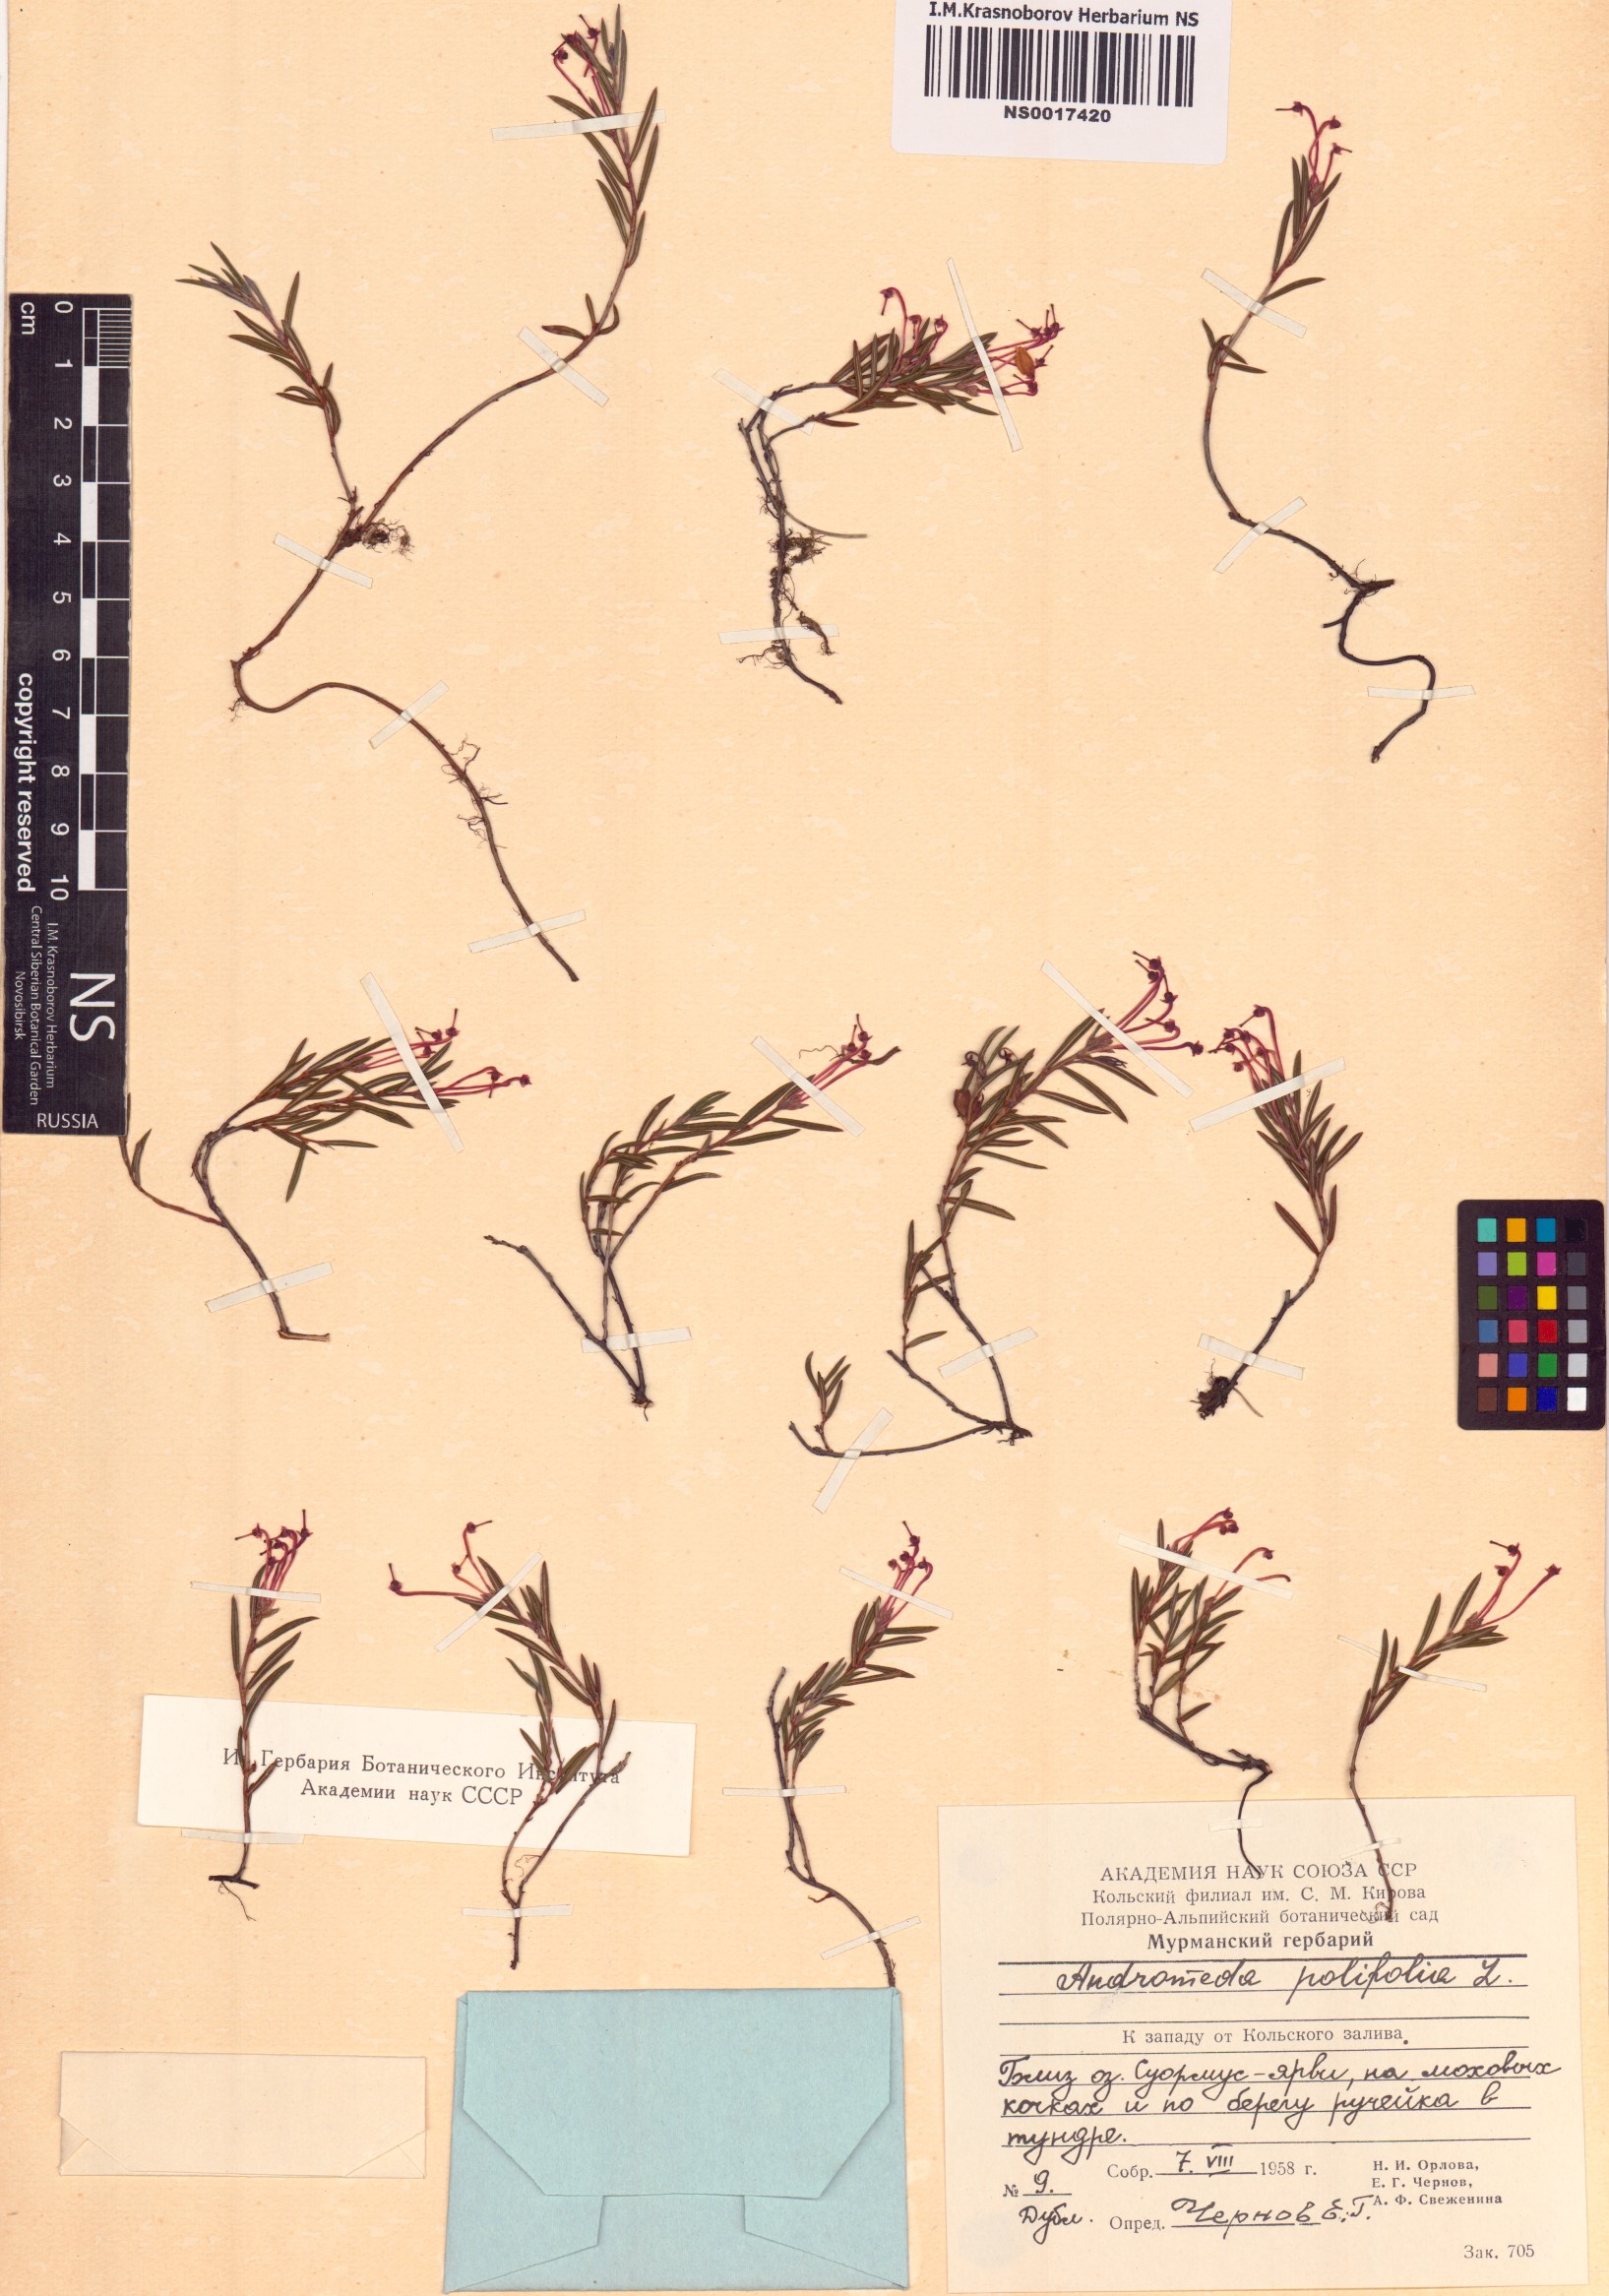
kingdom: Plantae
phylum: Tracheophyta
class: Magnoliopsida
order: Ericales
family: Ericaceae
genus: Andromeda
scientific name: Andromeda polifolia
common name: Bog-rosemary
